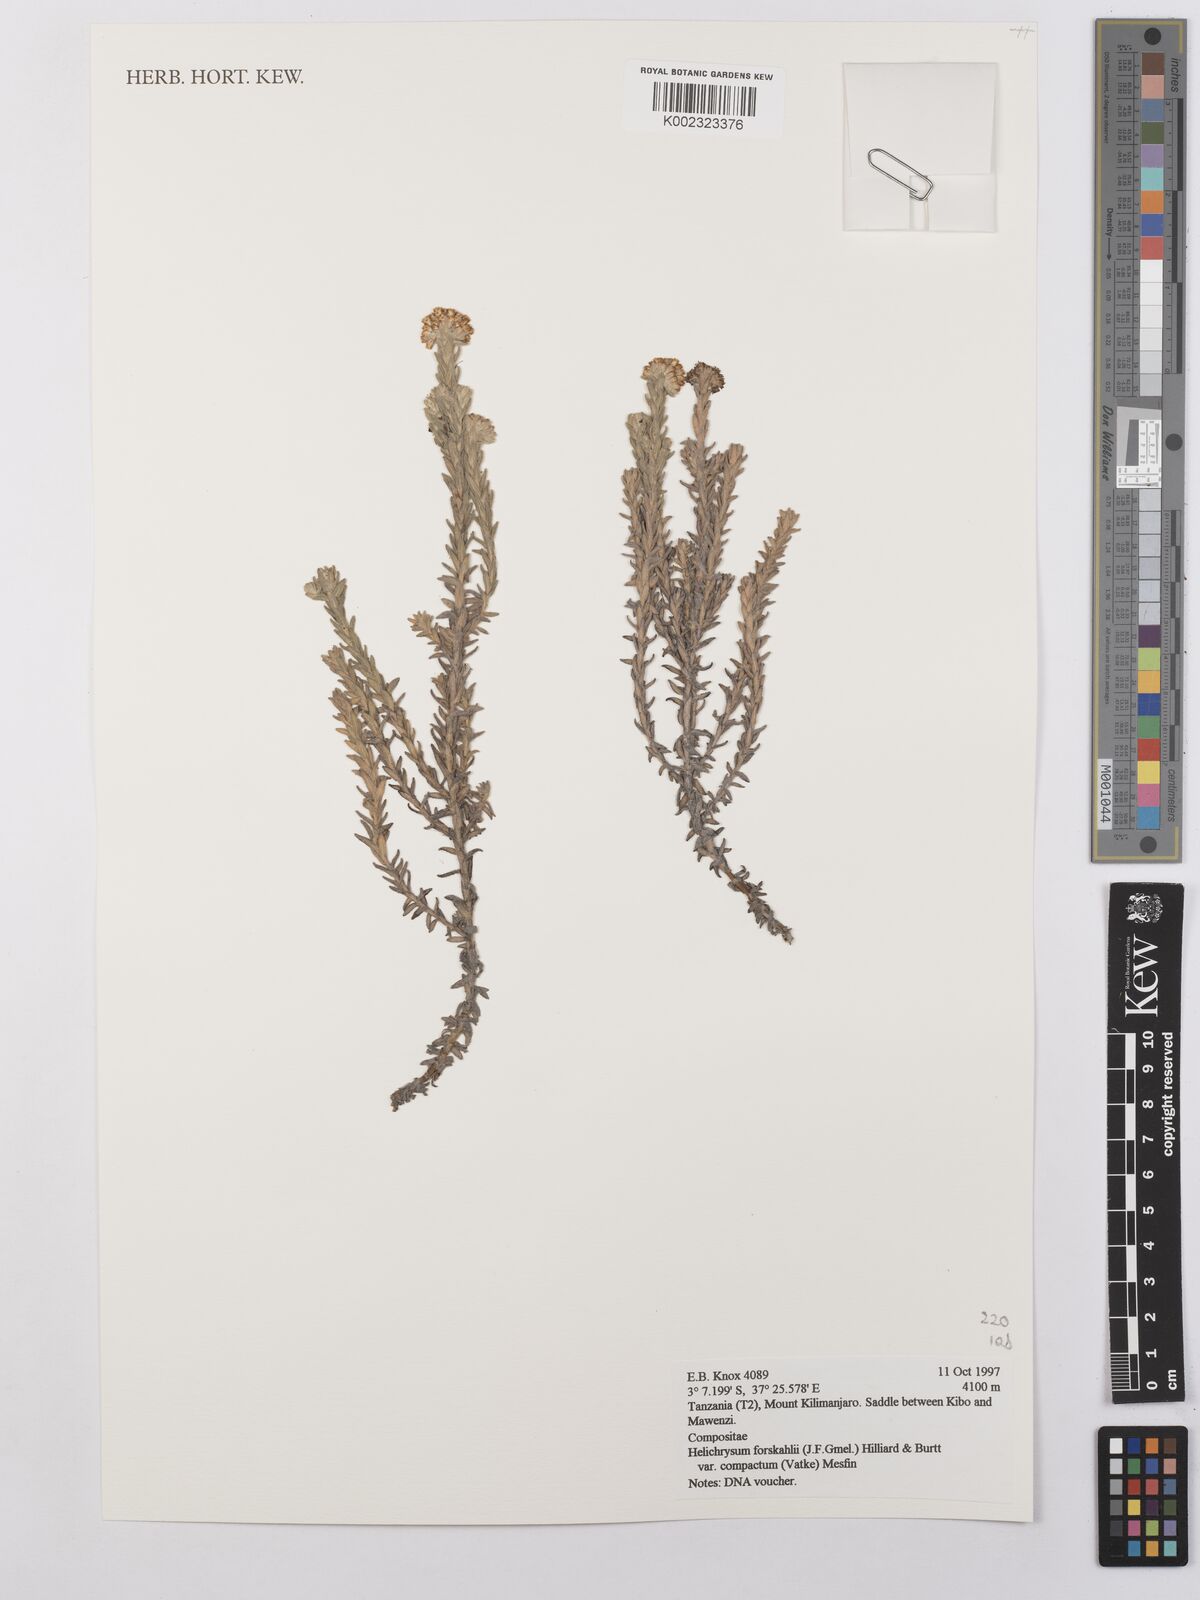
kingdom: Plantae
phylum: Tracheophyta
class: Magnoliopsida
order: Asterales
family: Asteraceae
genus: Helichrysum
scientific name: Helichrysum forskahlii
